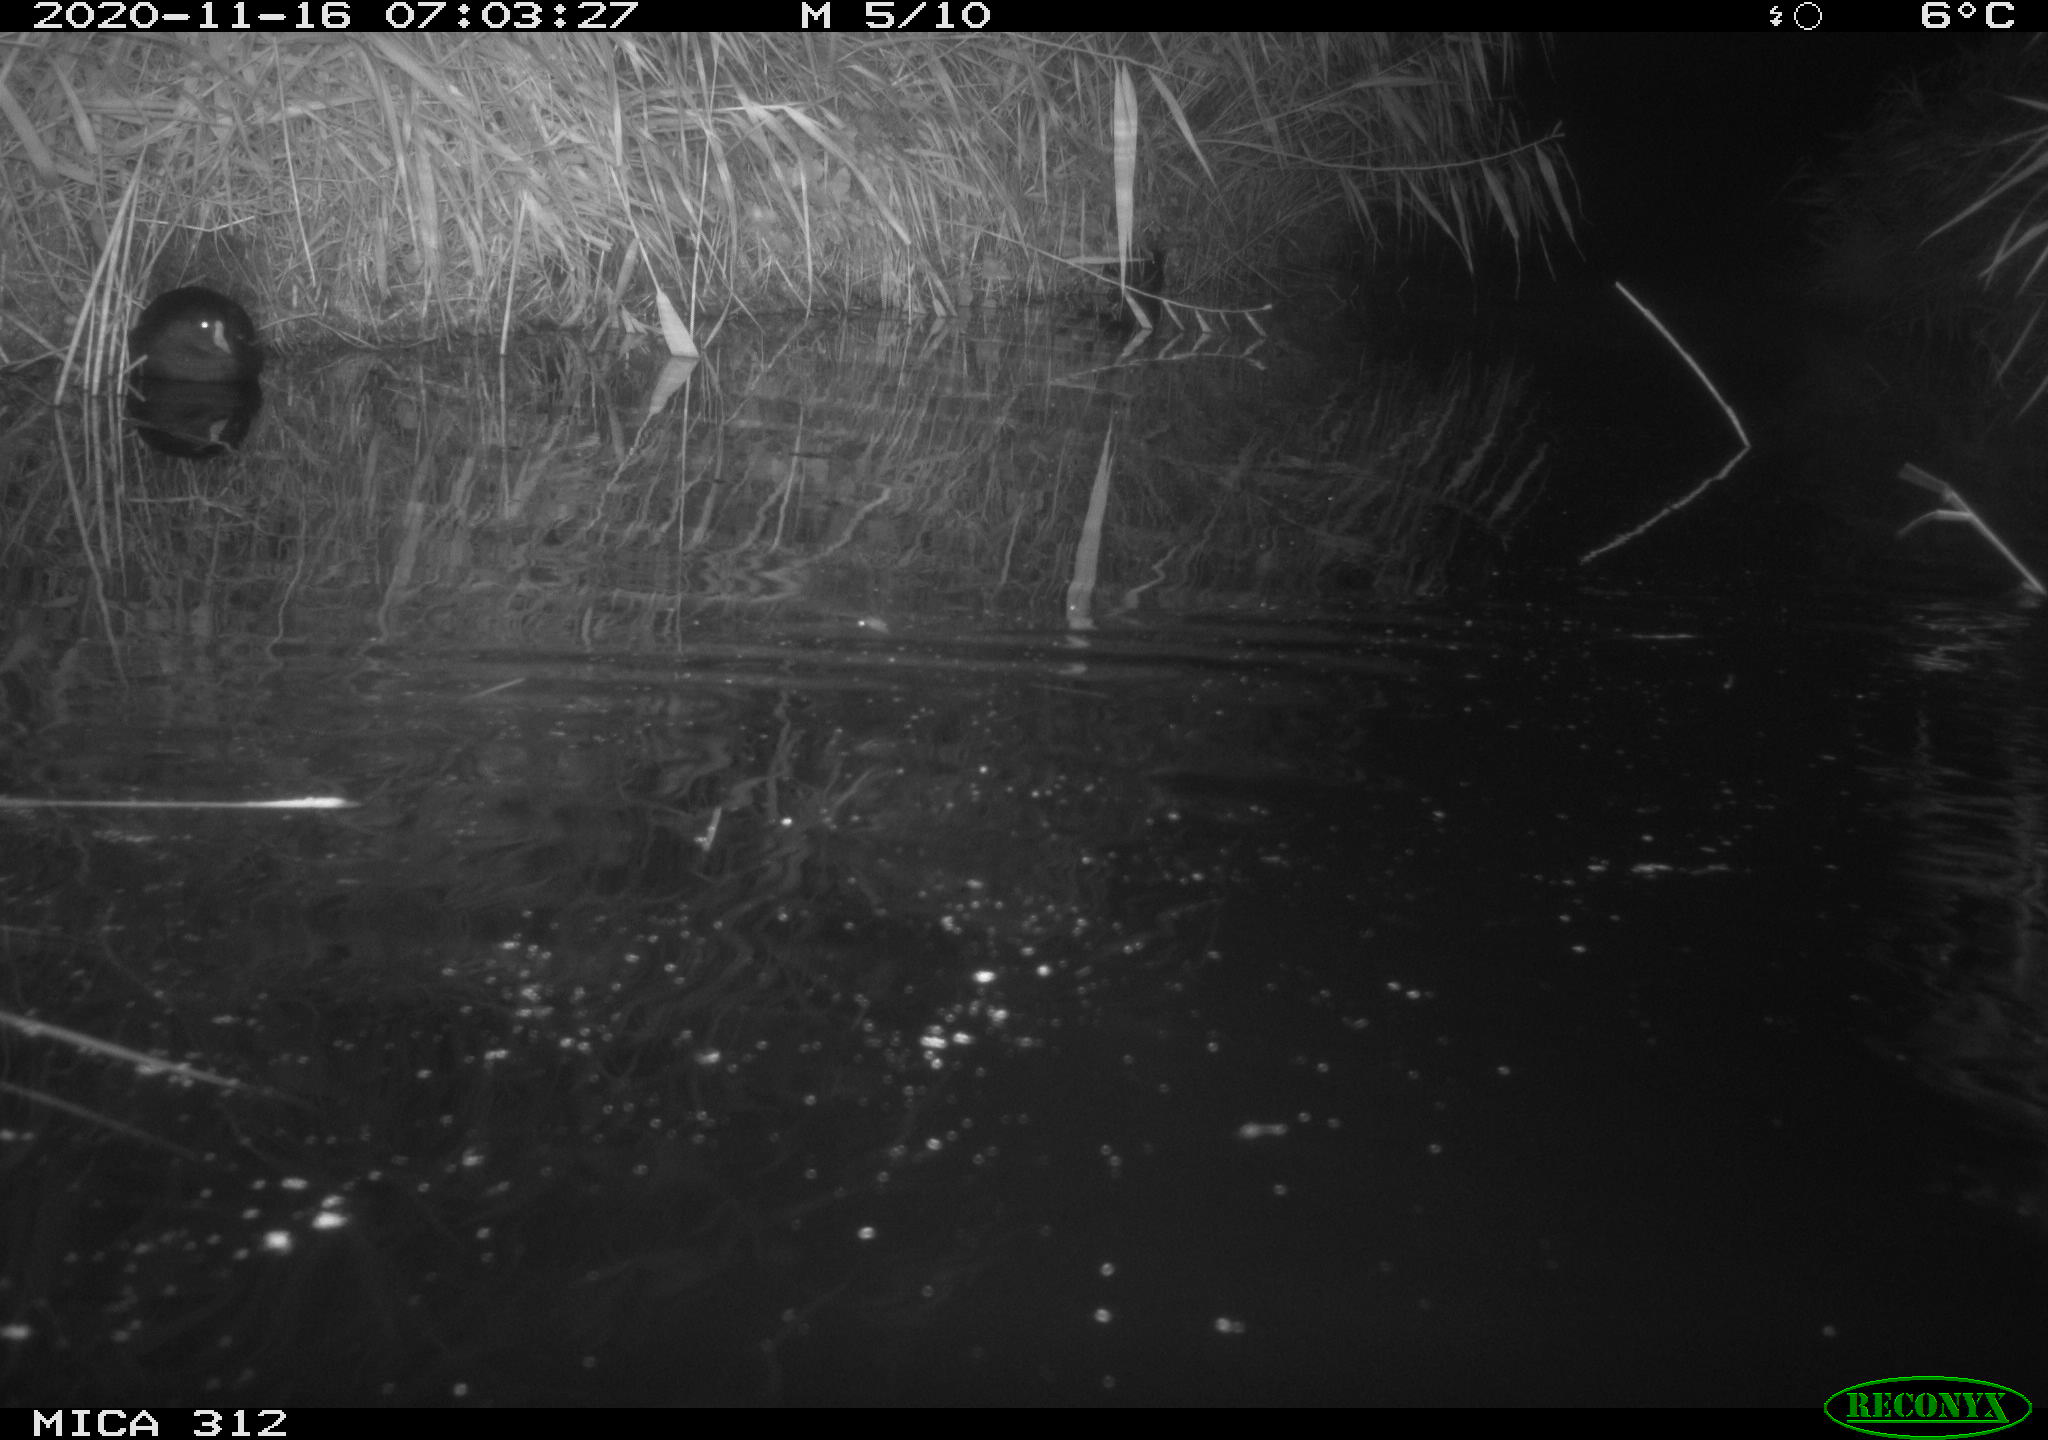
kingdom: Animalia
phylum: Chordata
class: Aves
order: Gruiformes
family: Rallidae
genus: Gallinula
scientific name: Gallinula chloropus
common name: Common moorhen
